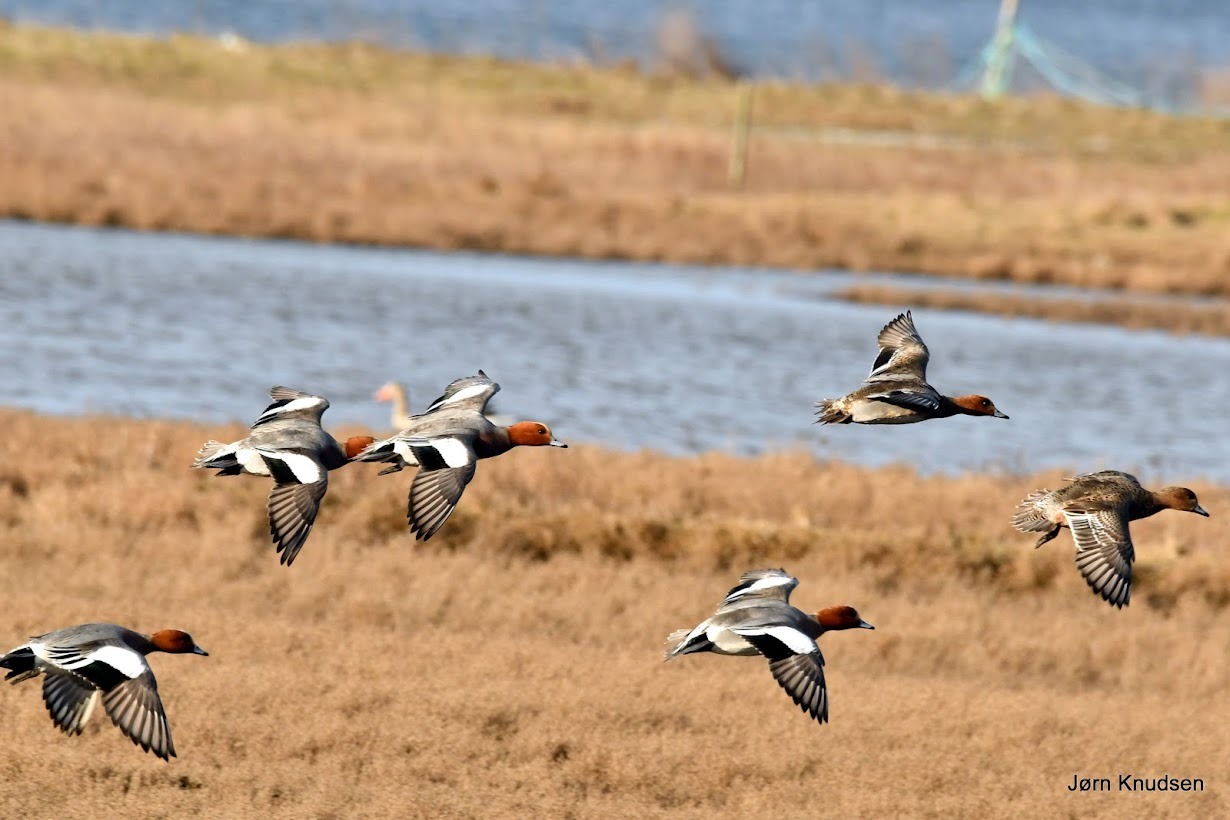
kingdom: Animalia
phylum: Chordata
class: Aves
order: Anseriformes
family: Anatidae
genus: Mareca
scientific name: Mareca penelope
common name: Pibeand
